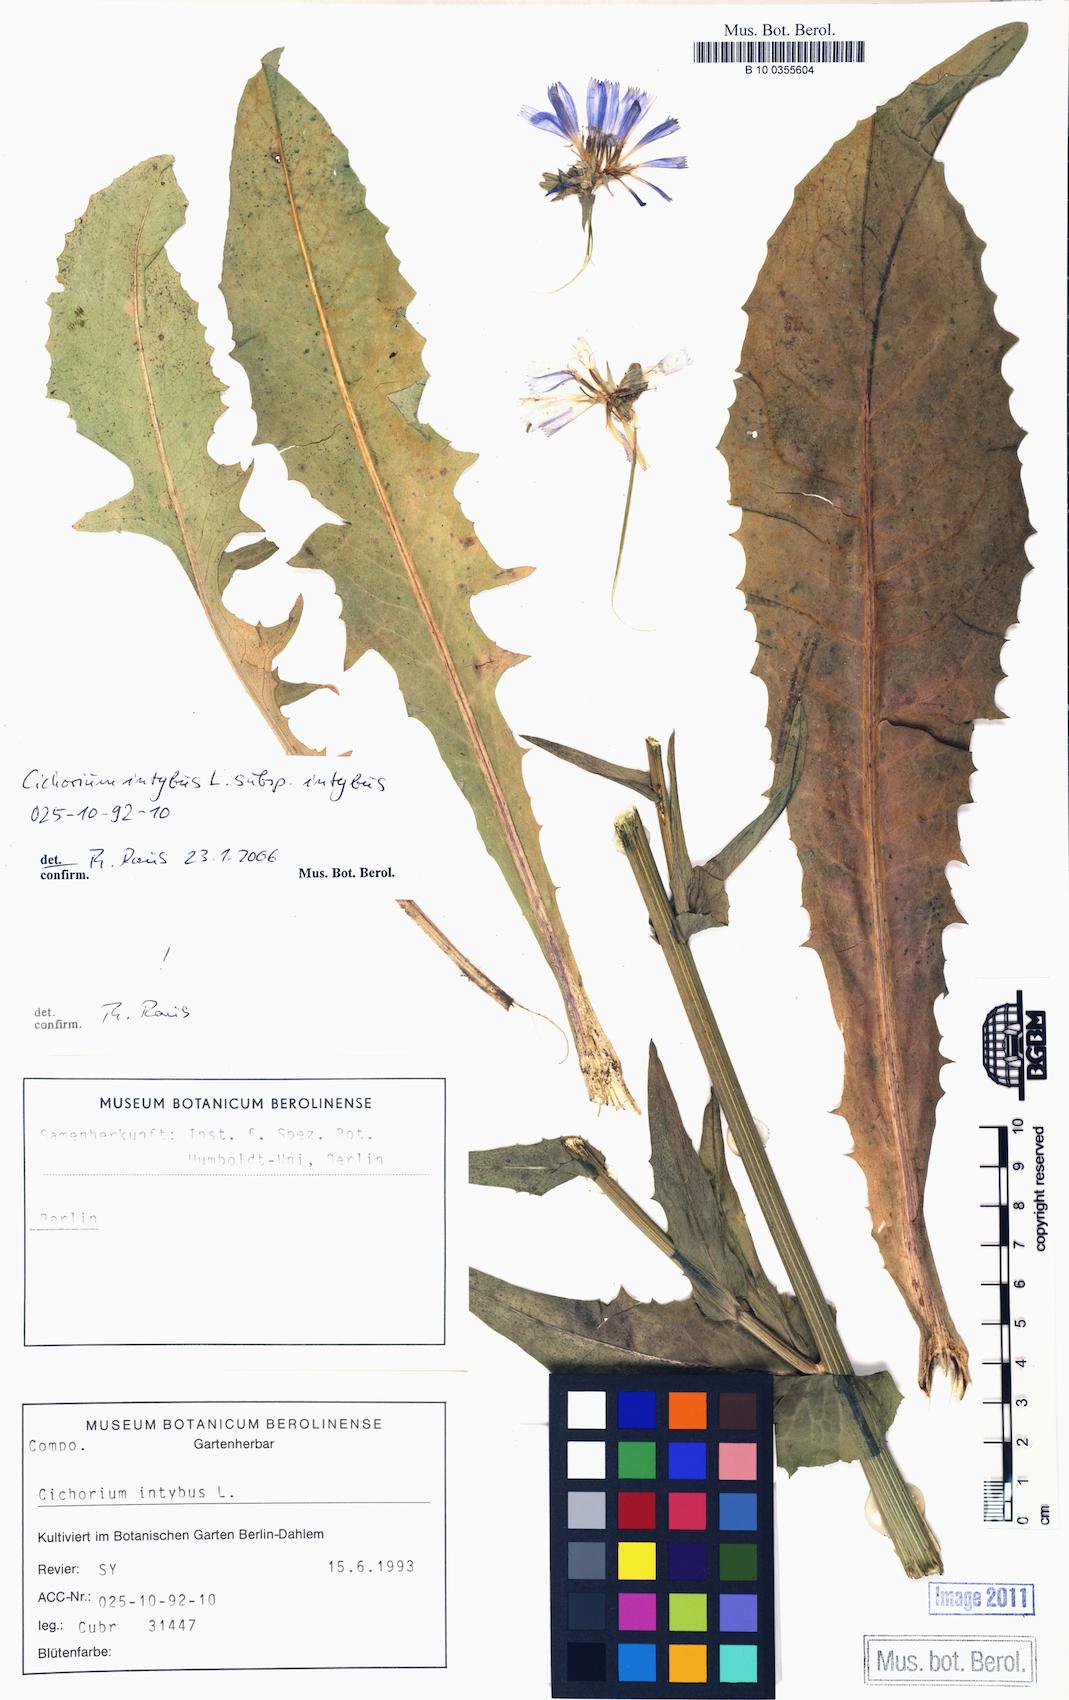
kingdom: Plantae
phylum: Tracheophyta
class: Magnoliopsida
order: Asterales
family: Asteraceae
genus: Cichorium
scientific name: Cichorium intybus
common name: Chicory
